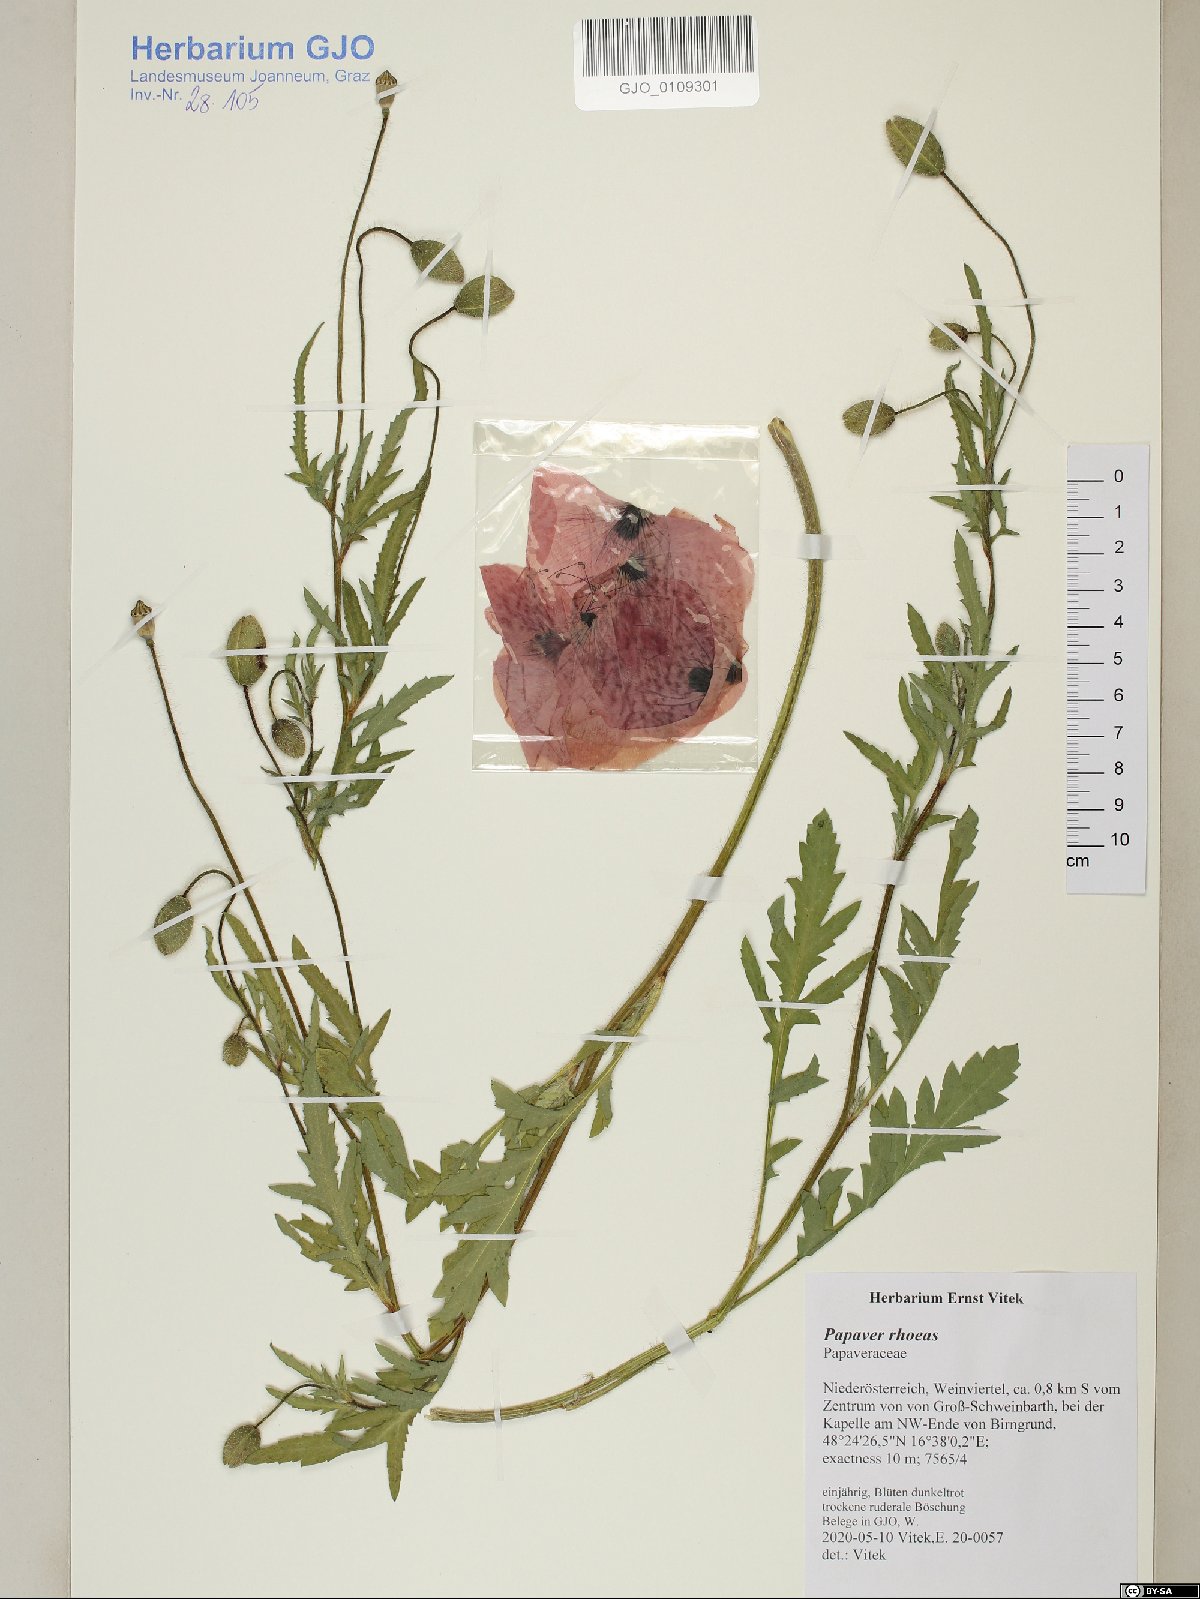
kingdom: Plantae
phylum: Tracheophyta
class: Magnoliopsida
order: Ranunculales
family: Papaveraceae
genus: Papaver
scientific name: Papaver rhoeas
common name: Corn poppy
